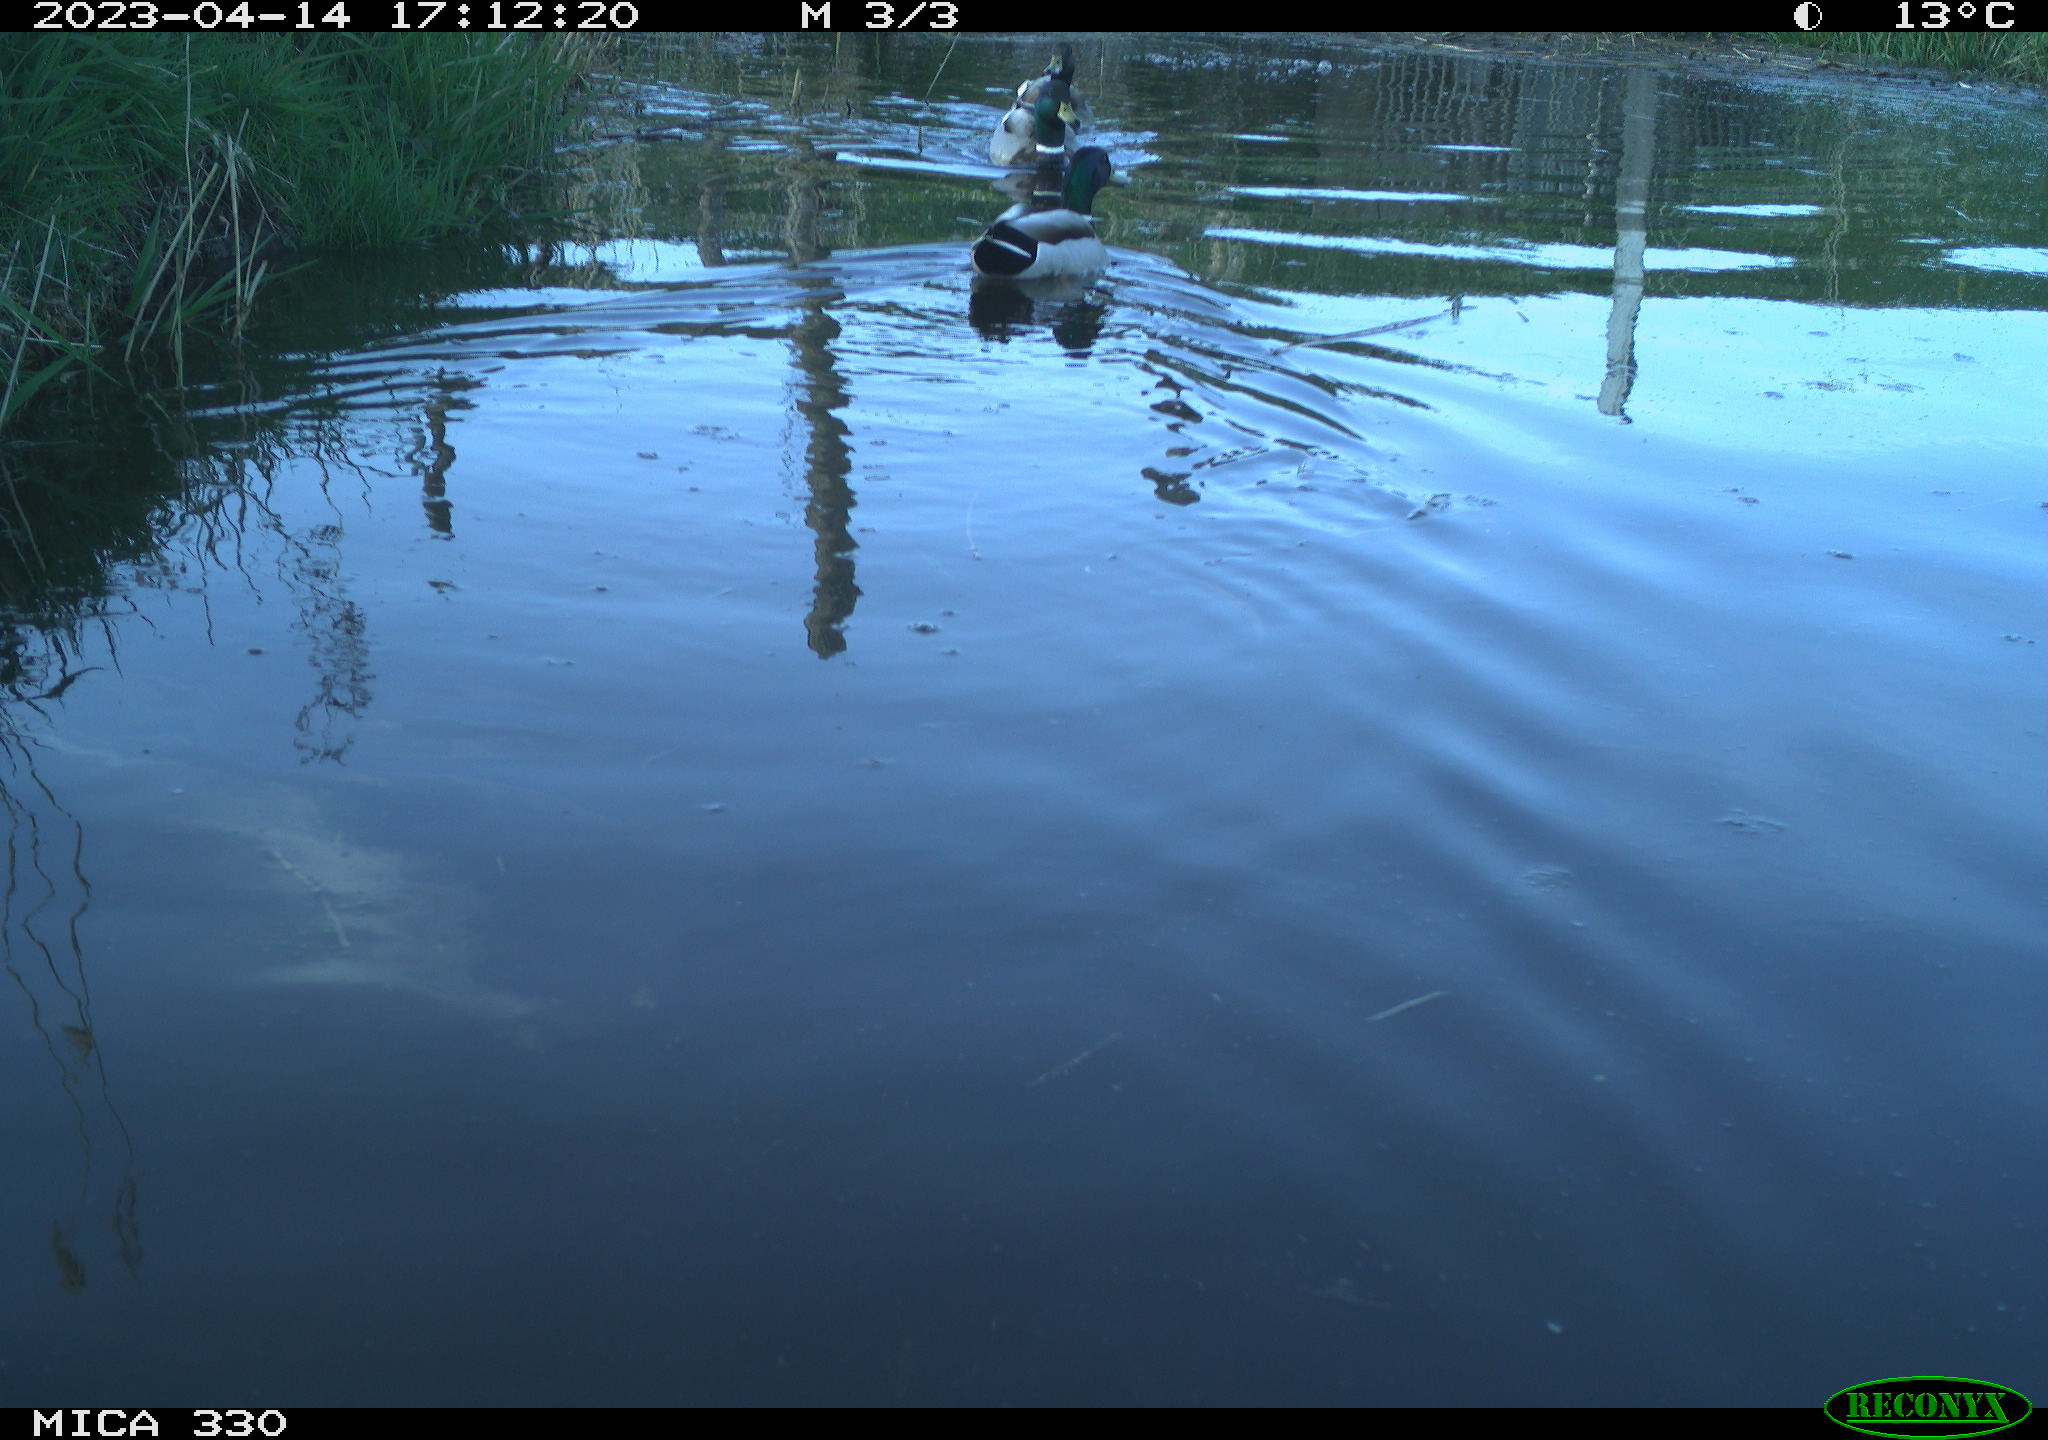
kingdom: Animalia
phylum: Chordata
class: Aves
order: Anseriformes
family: Anatidae
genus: Anas
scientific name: Anas platyrhynchos
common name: Mallard
